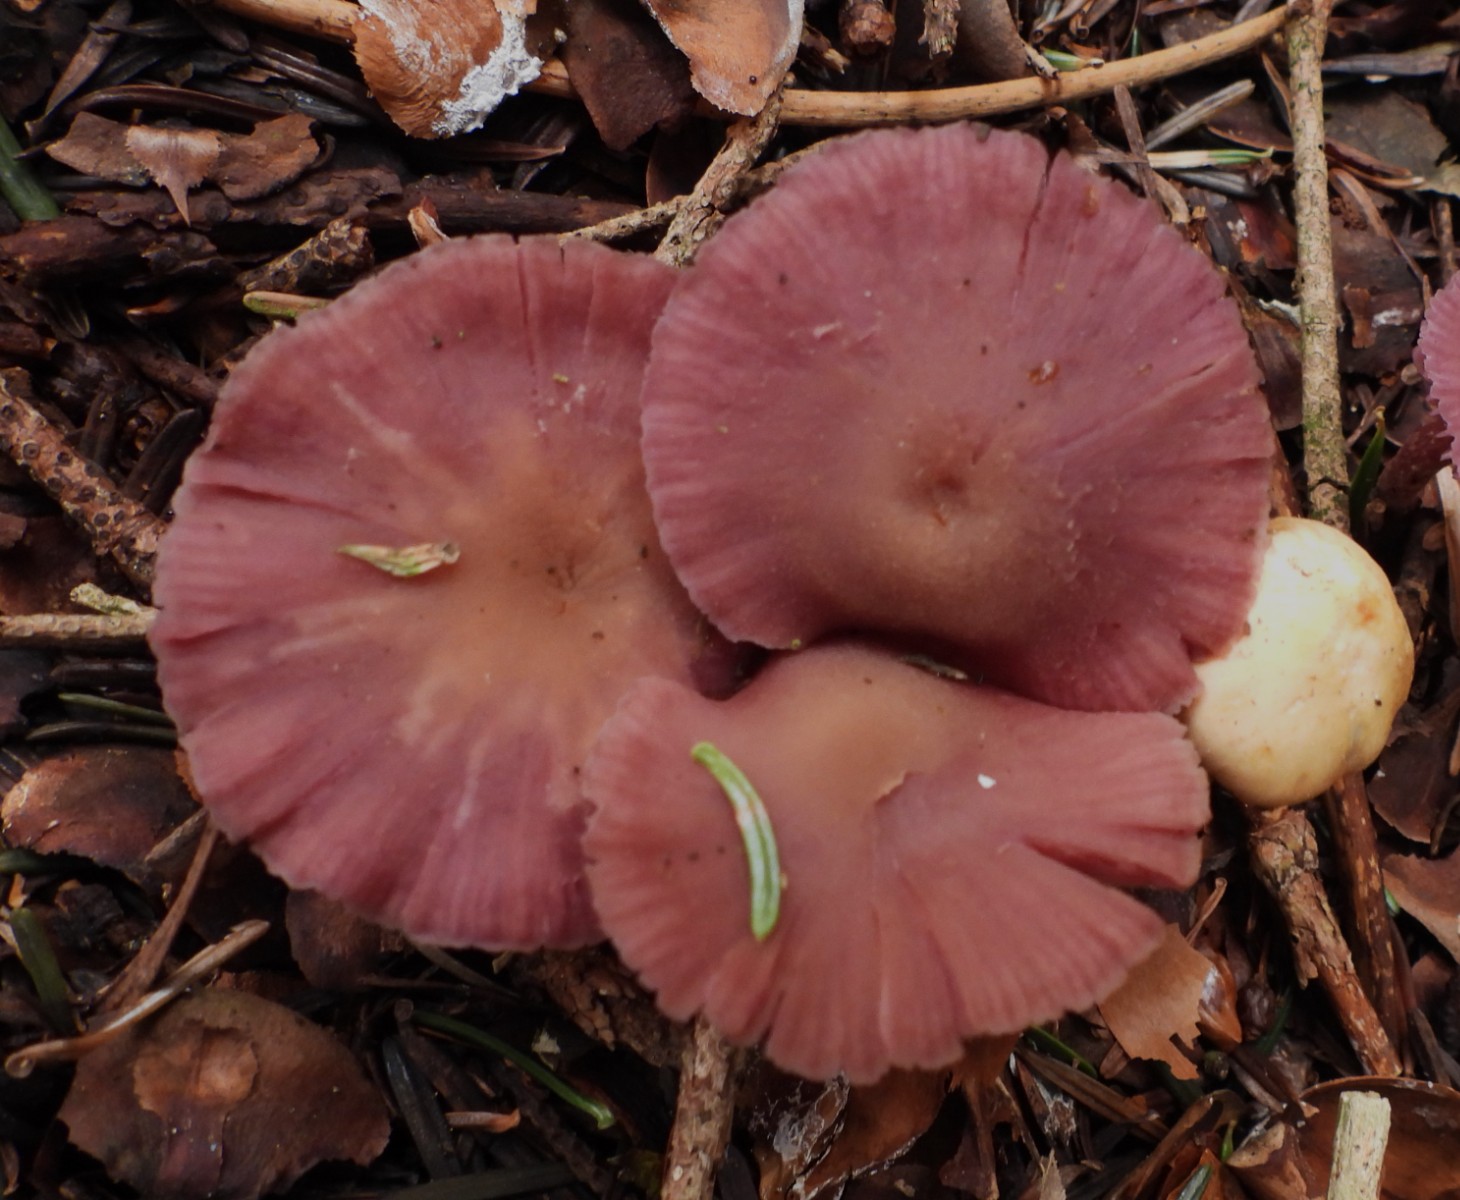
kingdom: Fungi
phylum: Basidiomycota
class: Agaricomycetes
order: Agaricales
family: Hydnangiaceae
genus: Laccaria
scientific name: Laccaria amethystina
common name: violet ametysthat
